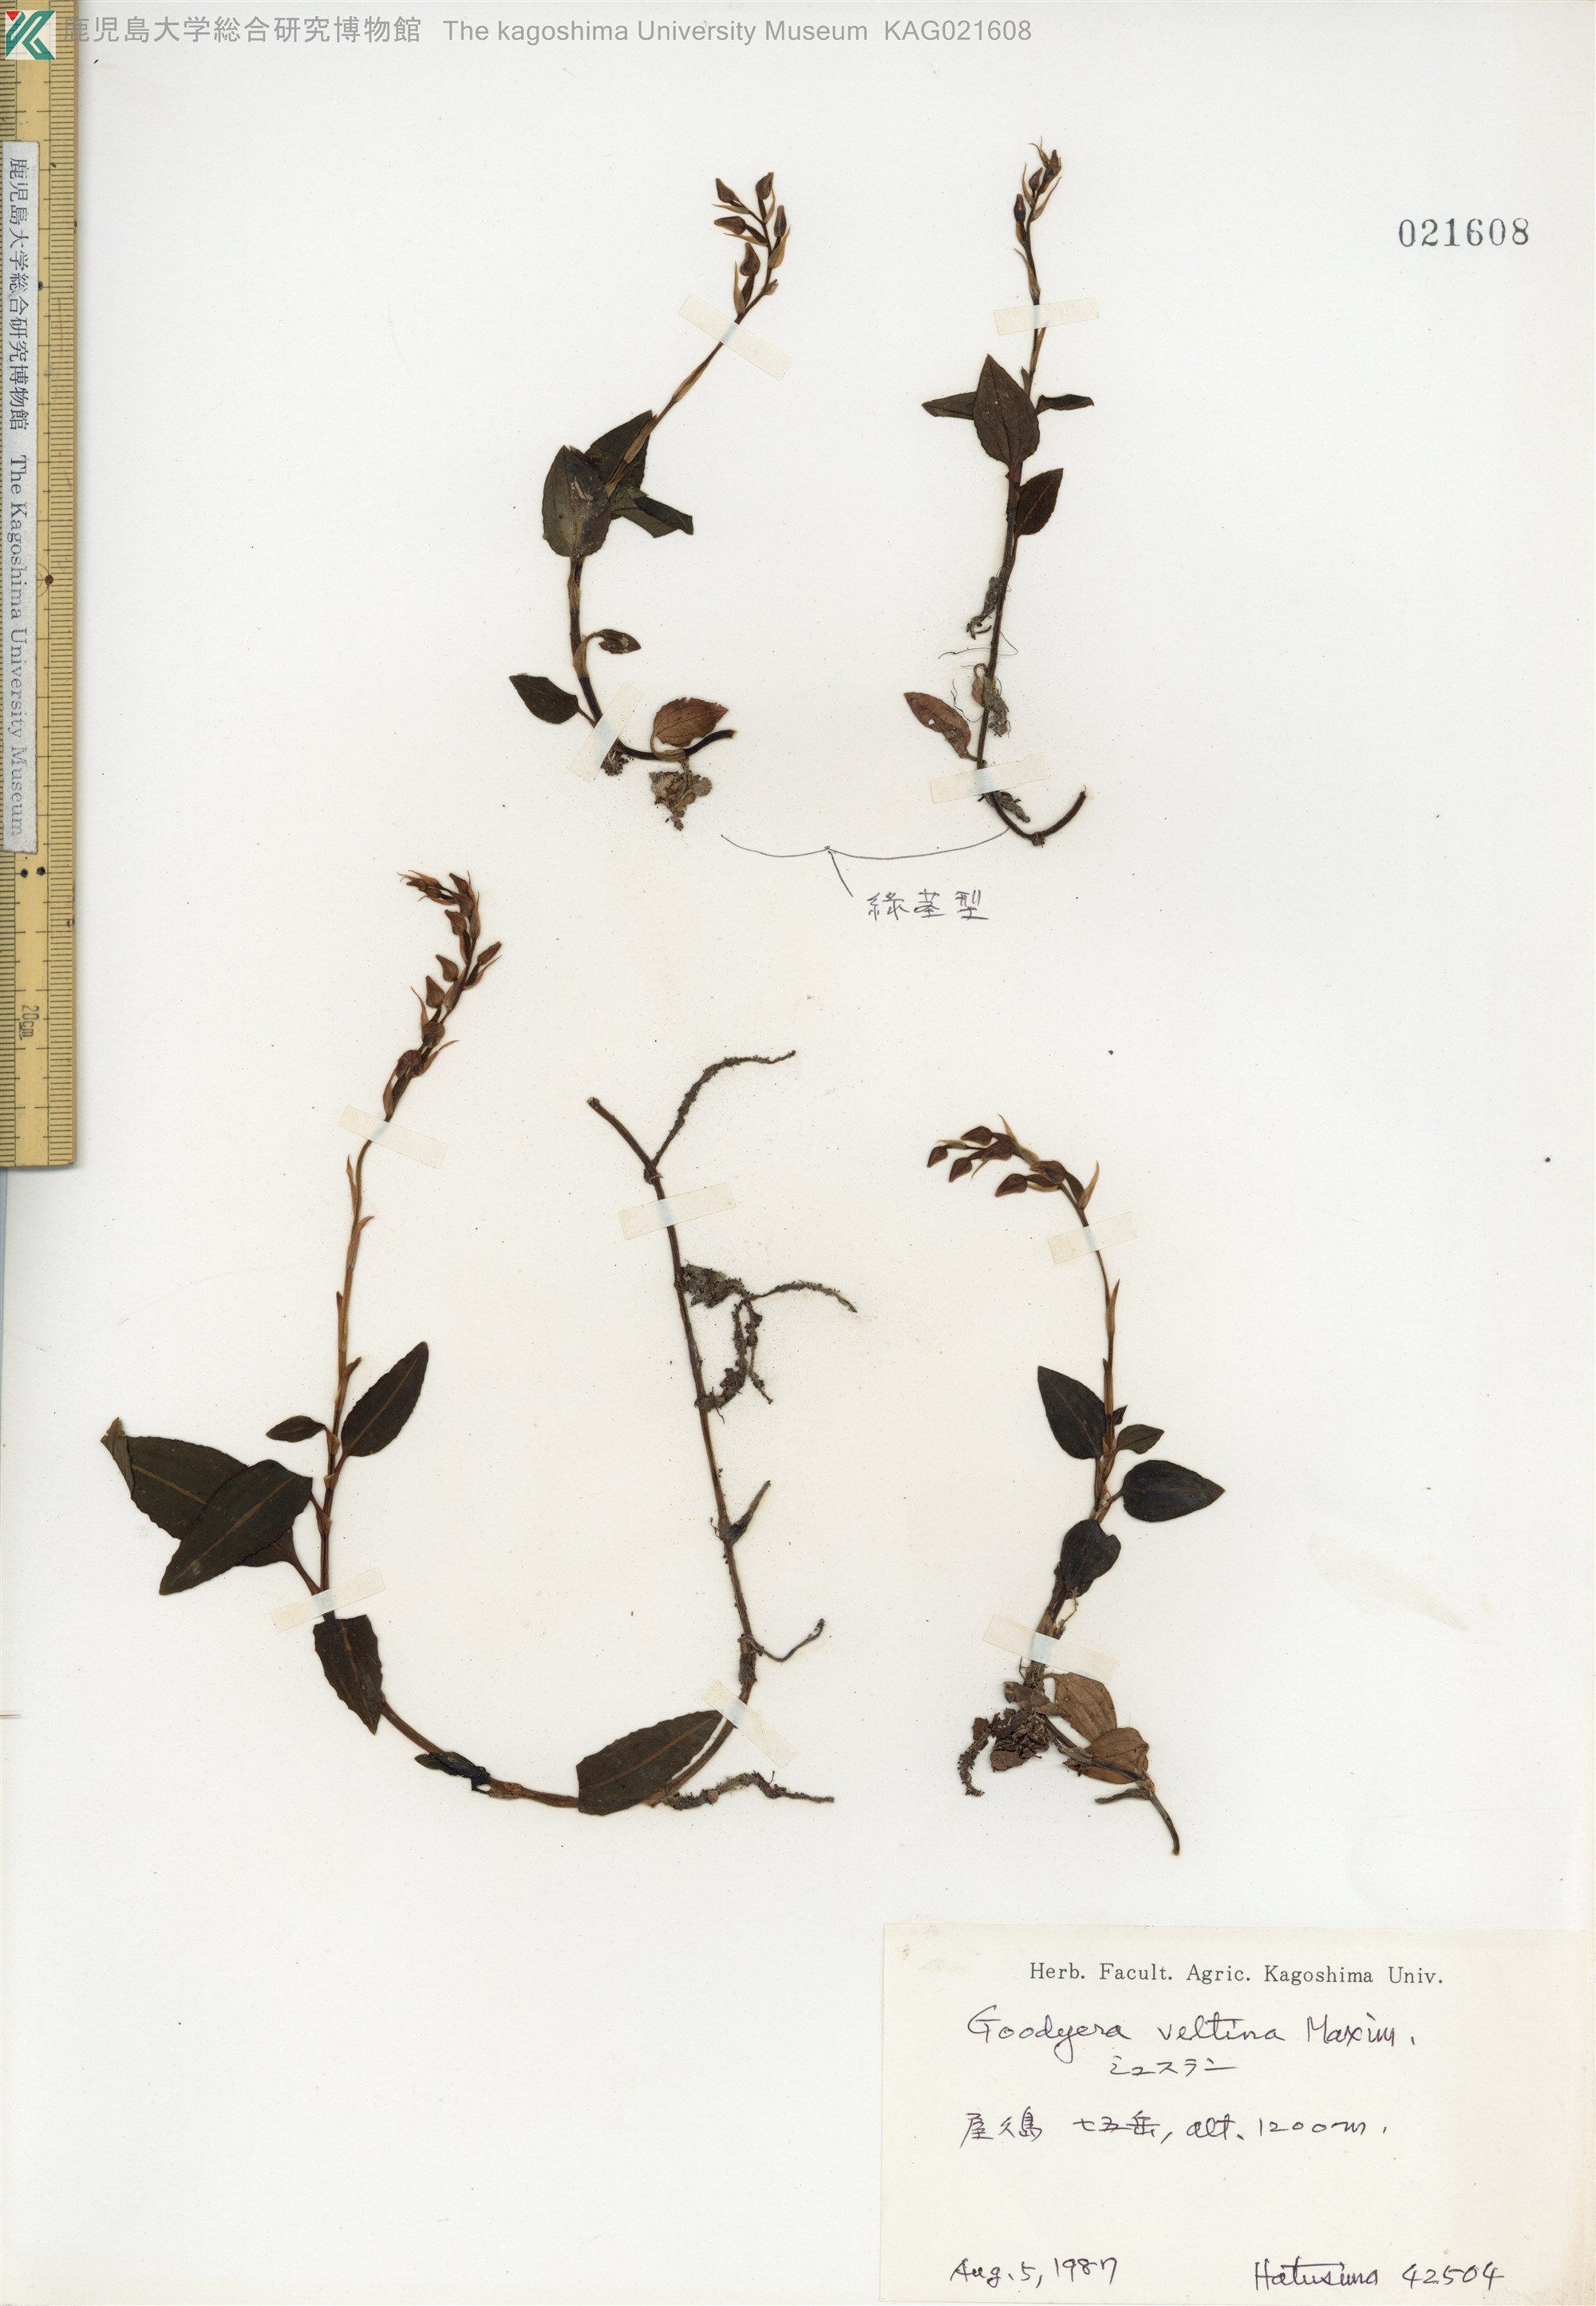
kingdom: Plantae
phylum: Tracheophyta
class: Liliopsida
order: Asparagales
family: Orchidaceae
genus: Goodyera
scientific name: Goodyera velutina
